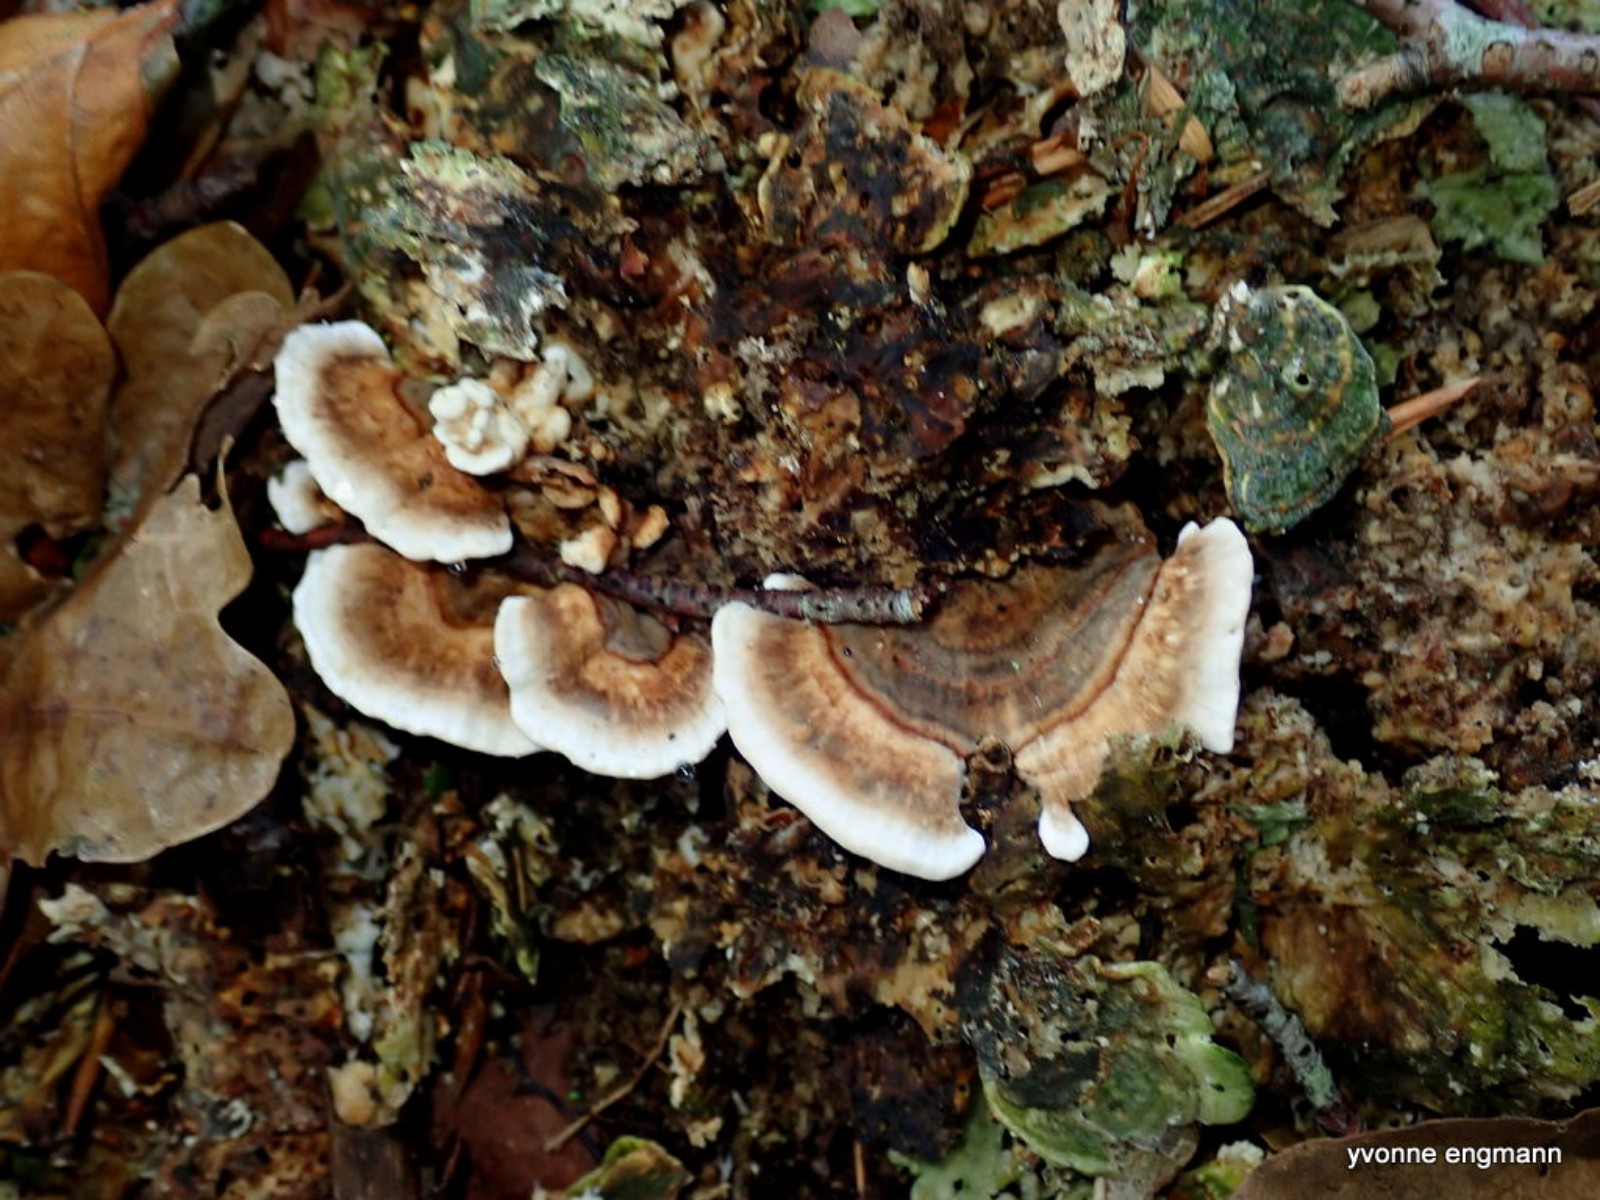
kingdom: Fungi
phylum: Basidiomycota
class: Agaricomycetes
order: Polyporales
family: Polyporaceae
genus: Trametes
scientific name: Trametes versicolor
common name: broget læderporesvamp
